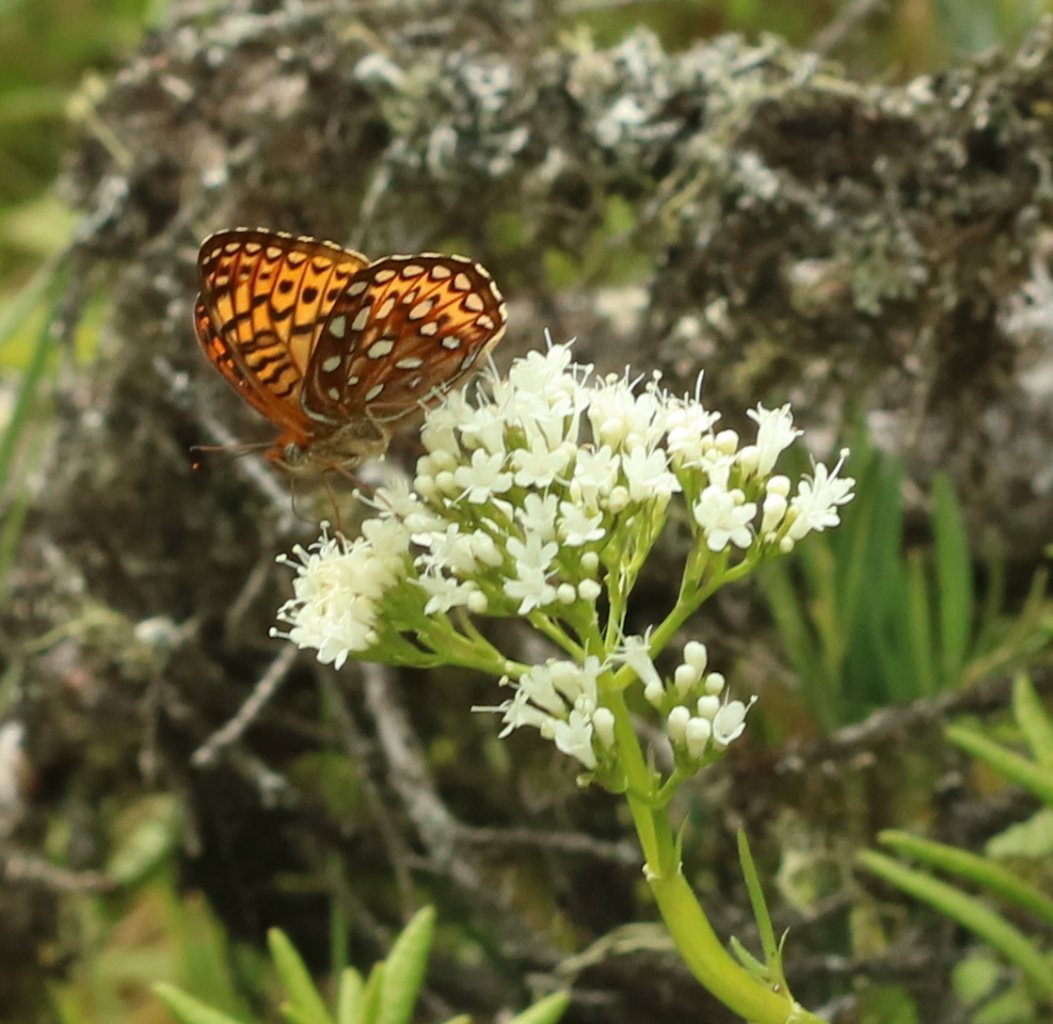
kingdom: Animalia
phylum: Arthropoda
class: Insecta
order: Lepidoptera
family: Nymphalidae
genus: Speyeria
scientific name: Speyeria atlantis
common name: Atlantis Fritillary
